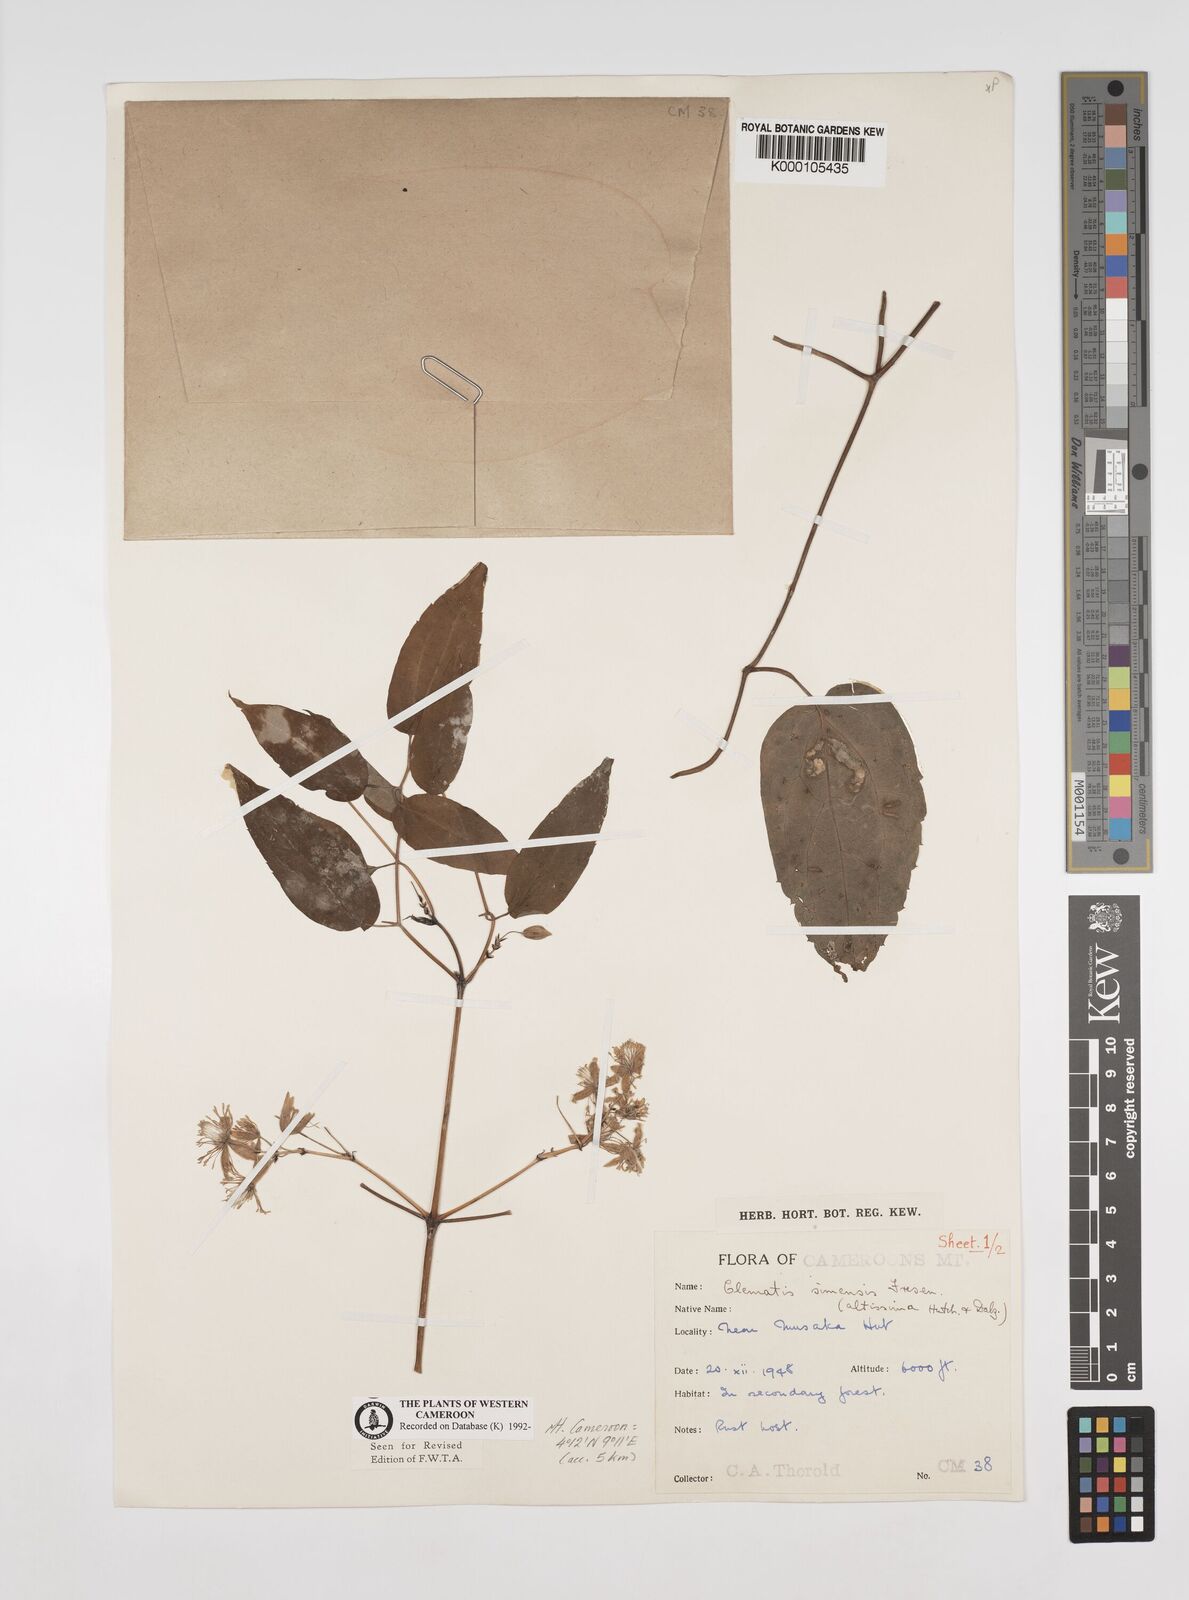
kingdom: Plantae
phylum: Tracheophyta
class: Magnoliopsida
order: Ranunculales
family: Ranunculaceae
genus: Clematis
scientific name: Clematis simensis
